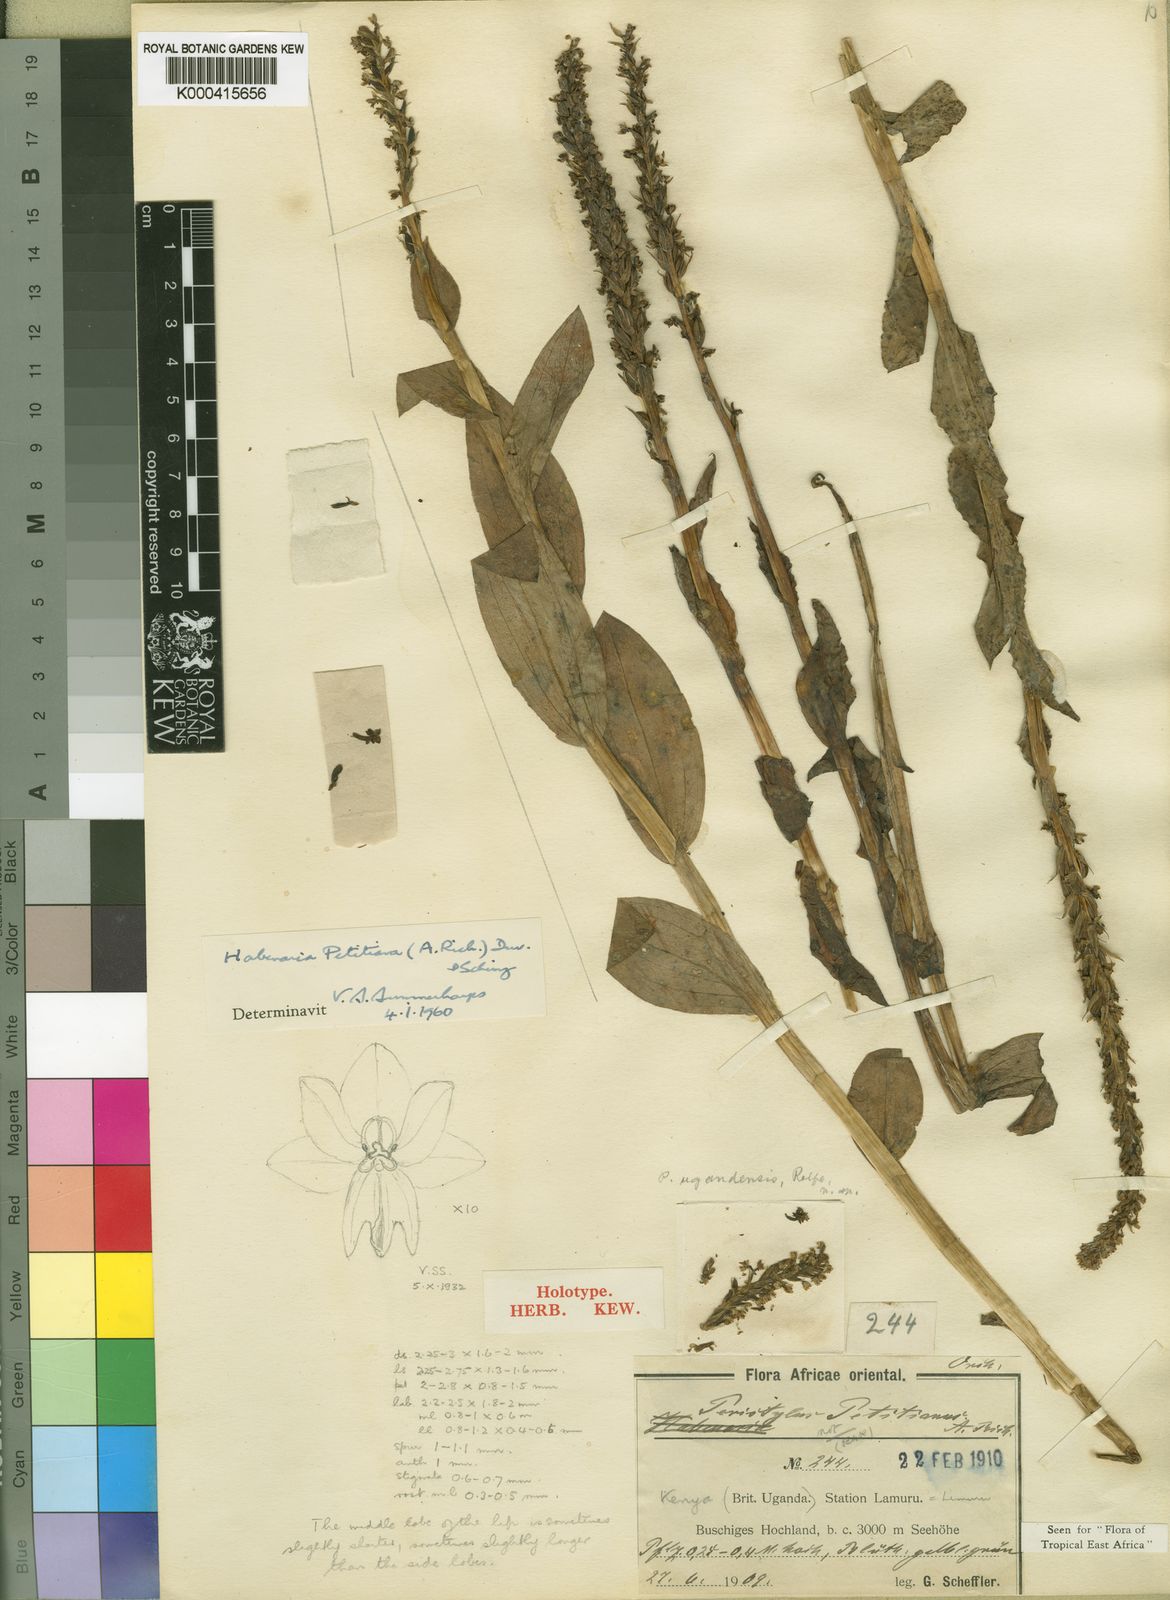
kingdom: Plantae
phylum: Tracheophyta
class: Liliopsida
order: Asparagales
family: Orchidaceae
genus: Habenaria
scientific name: Habenaria petitiana
